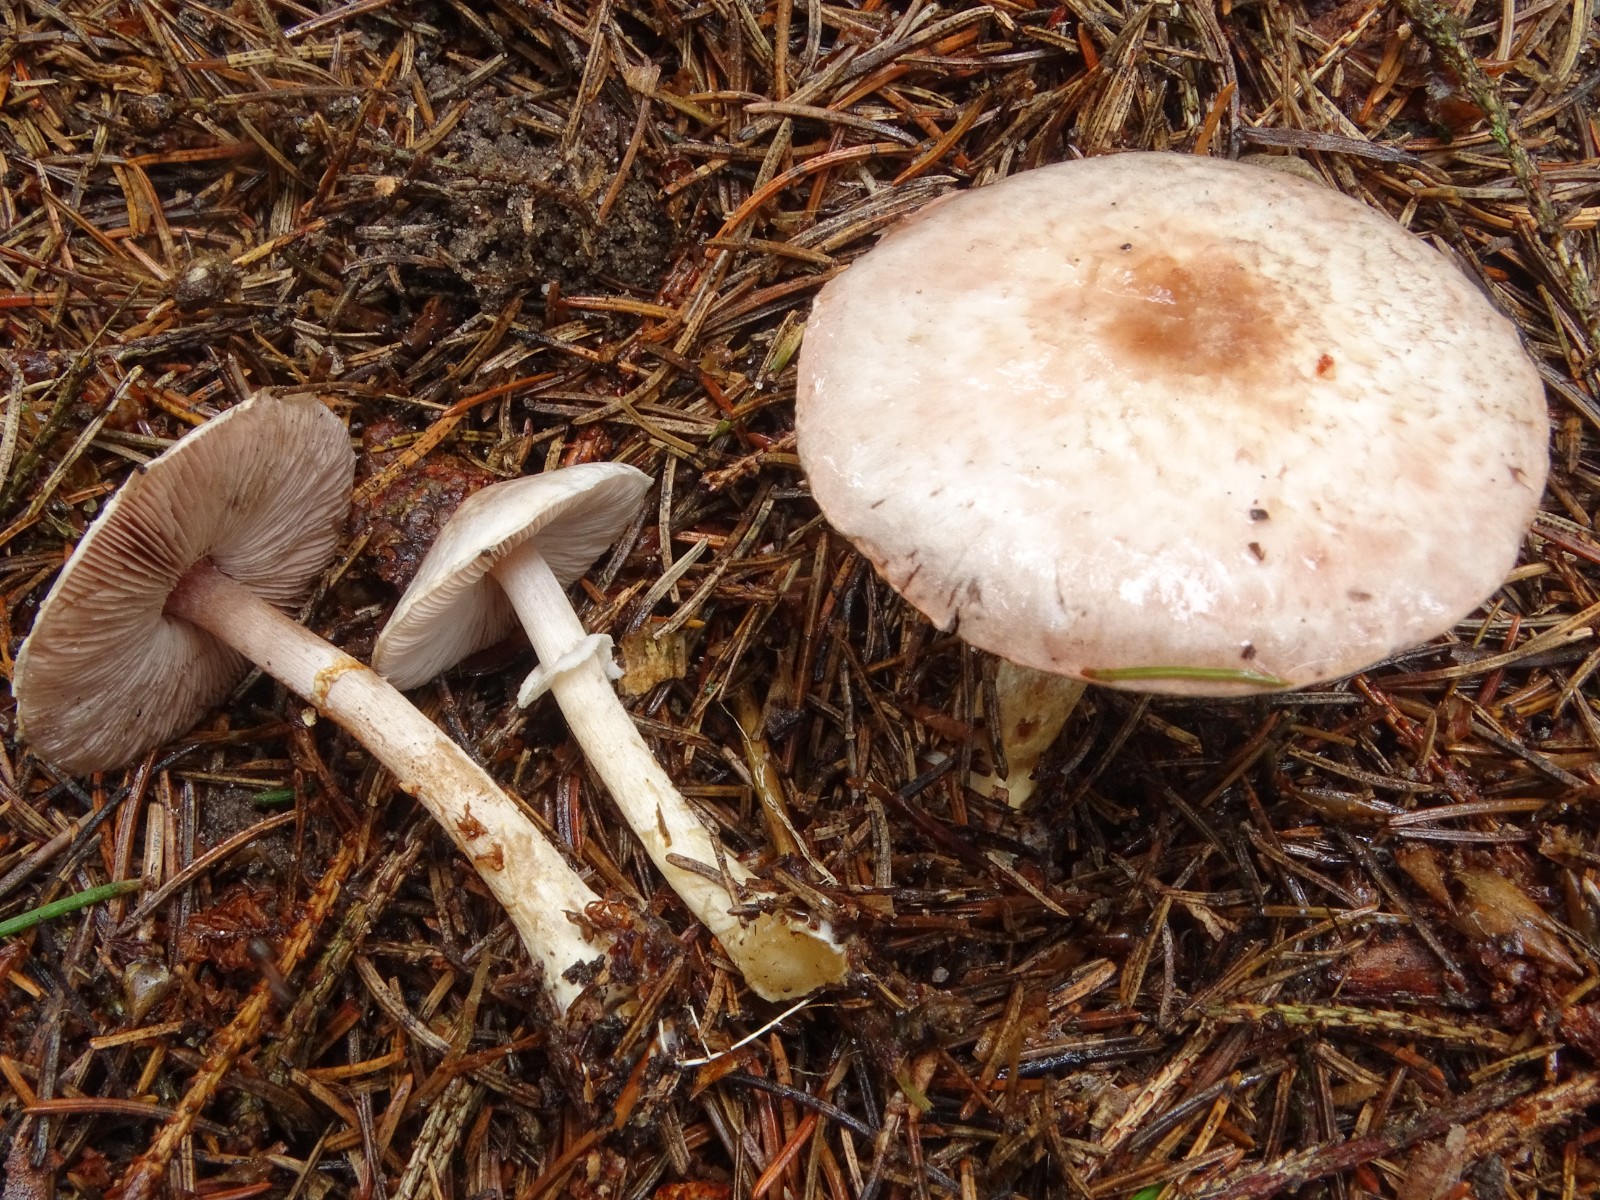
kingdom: Fungi
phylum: Basidiomycota
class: Agaricomycetes
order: Agaricales
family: Agaricaceae
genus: Agaricus
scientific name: Agaricus dulcidulus
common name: blegrød champignon
